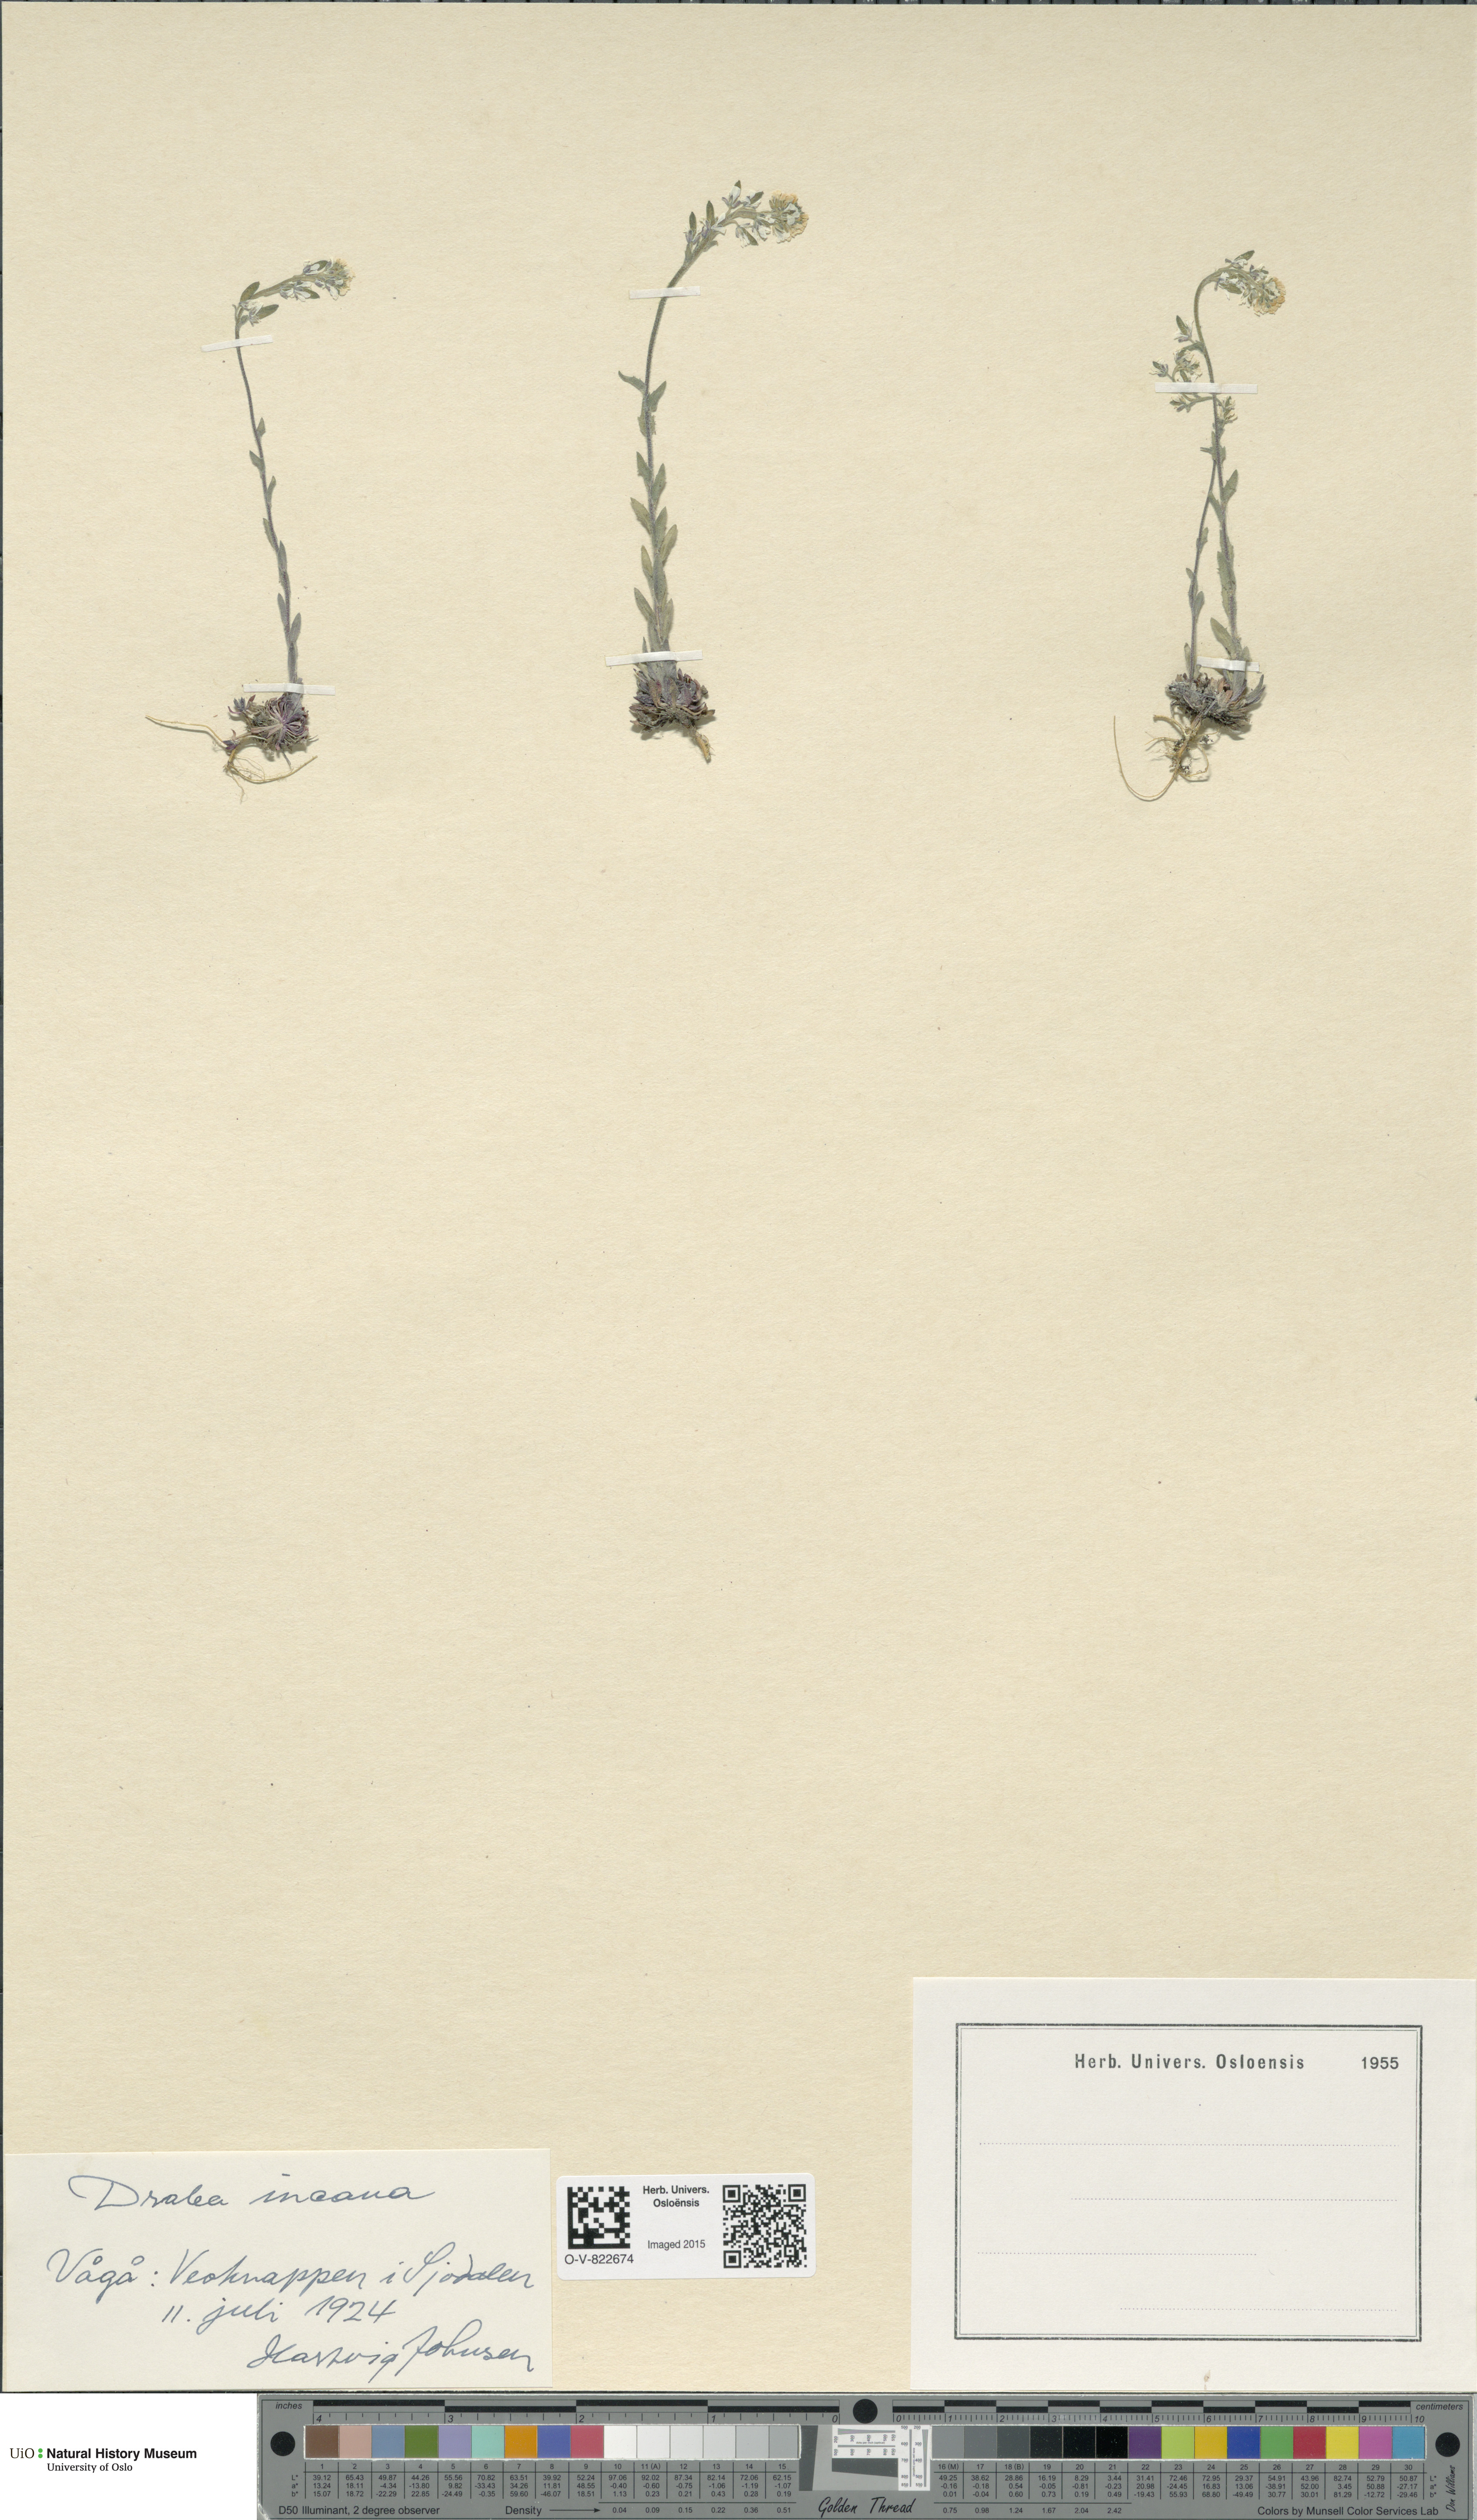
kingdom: Plantae
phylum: Tracheophyta
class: Magnoliopsida
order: Brassicales
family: Brassicaceae
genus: Draba
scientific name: Draba incana
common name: Hoary whitlow-grass
